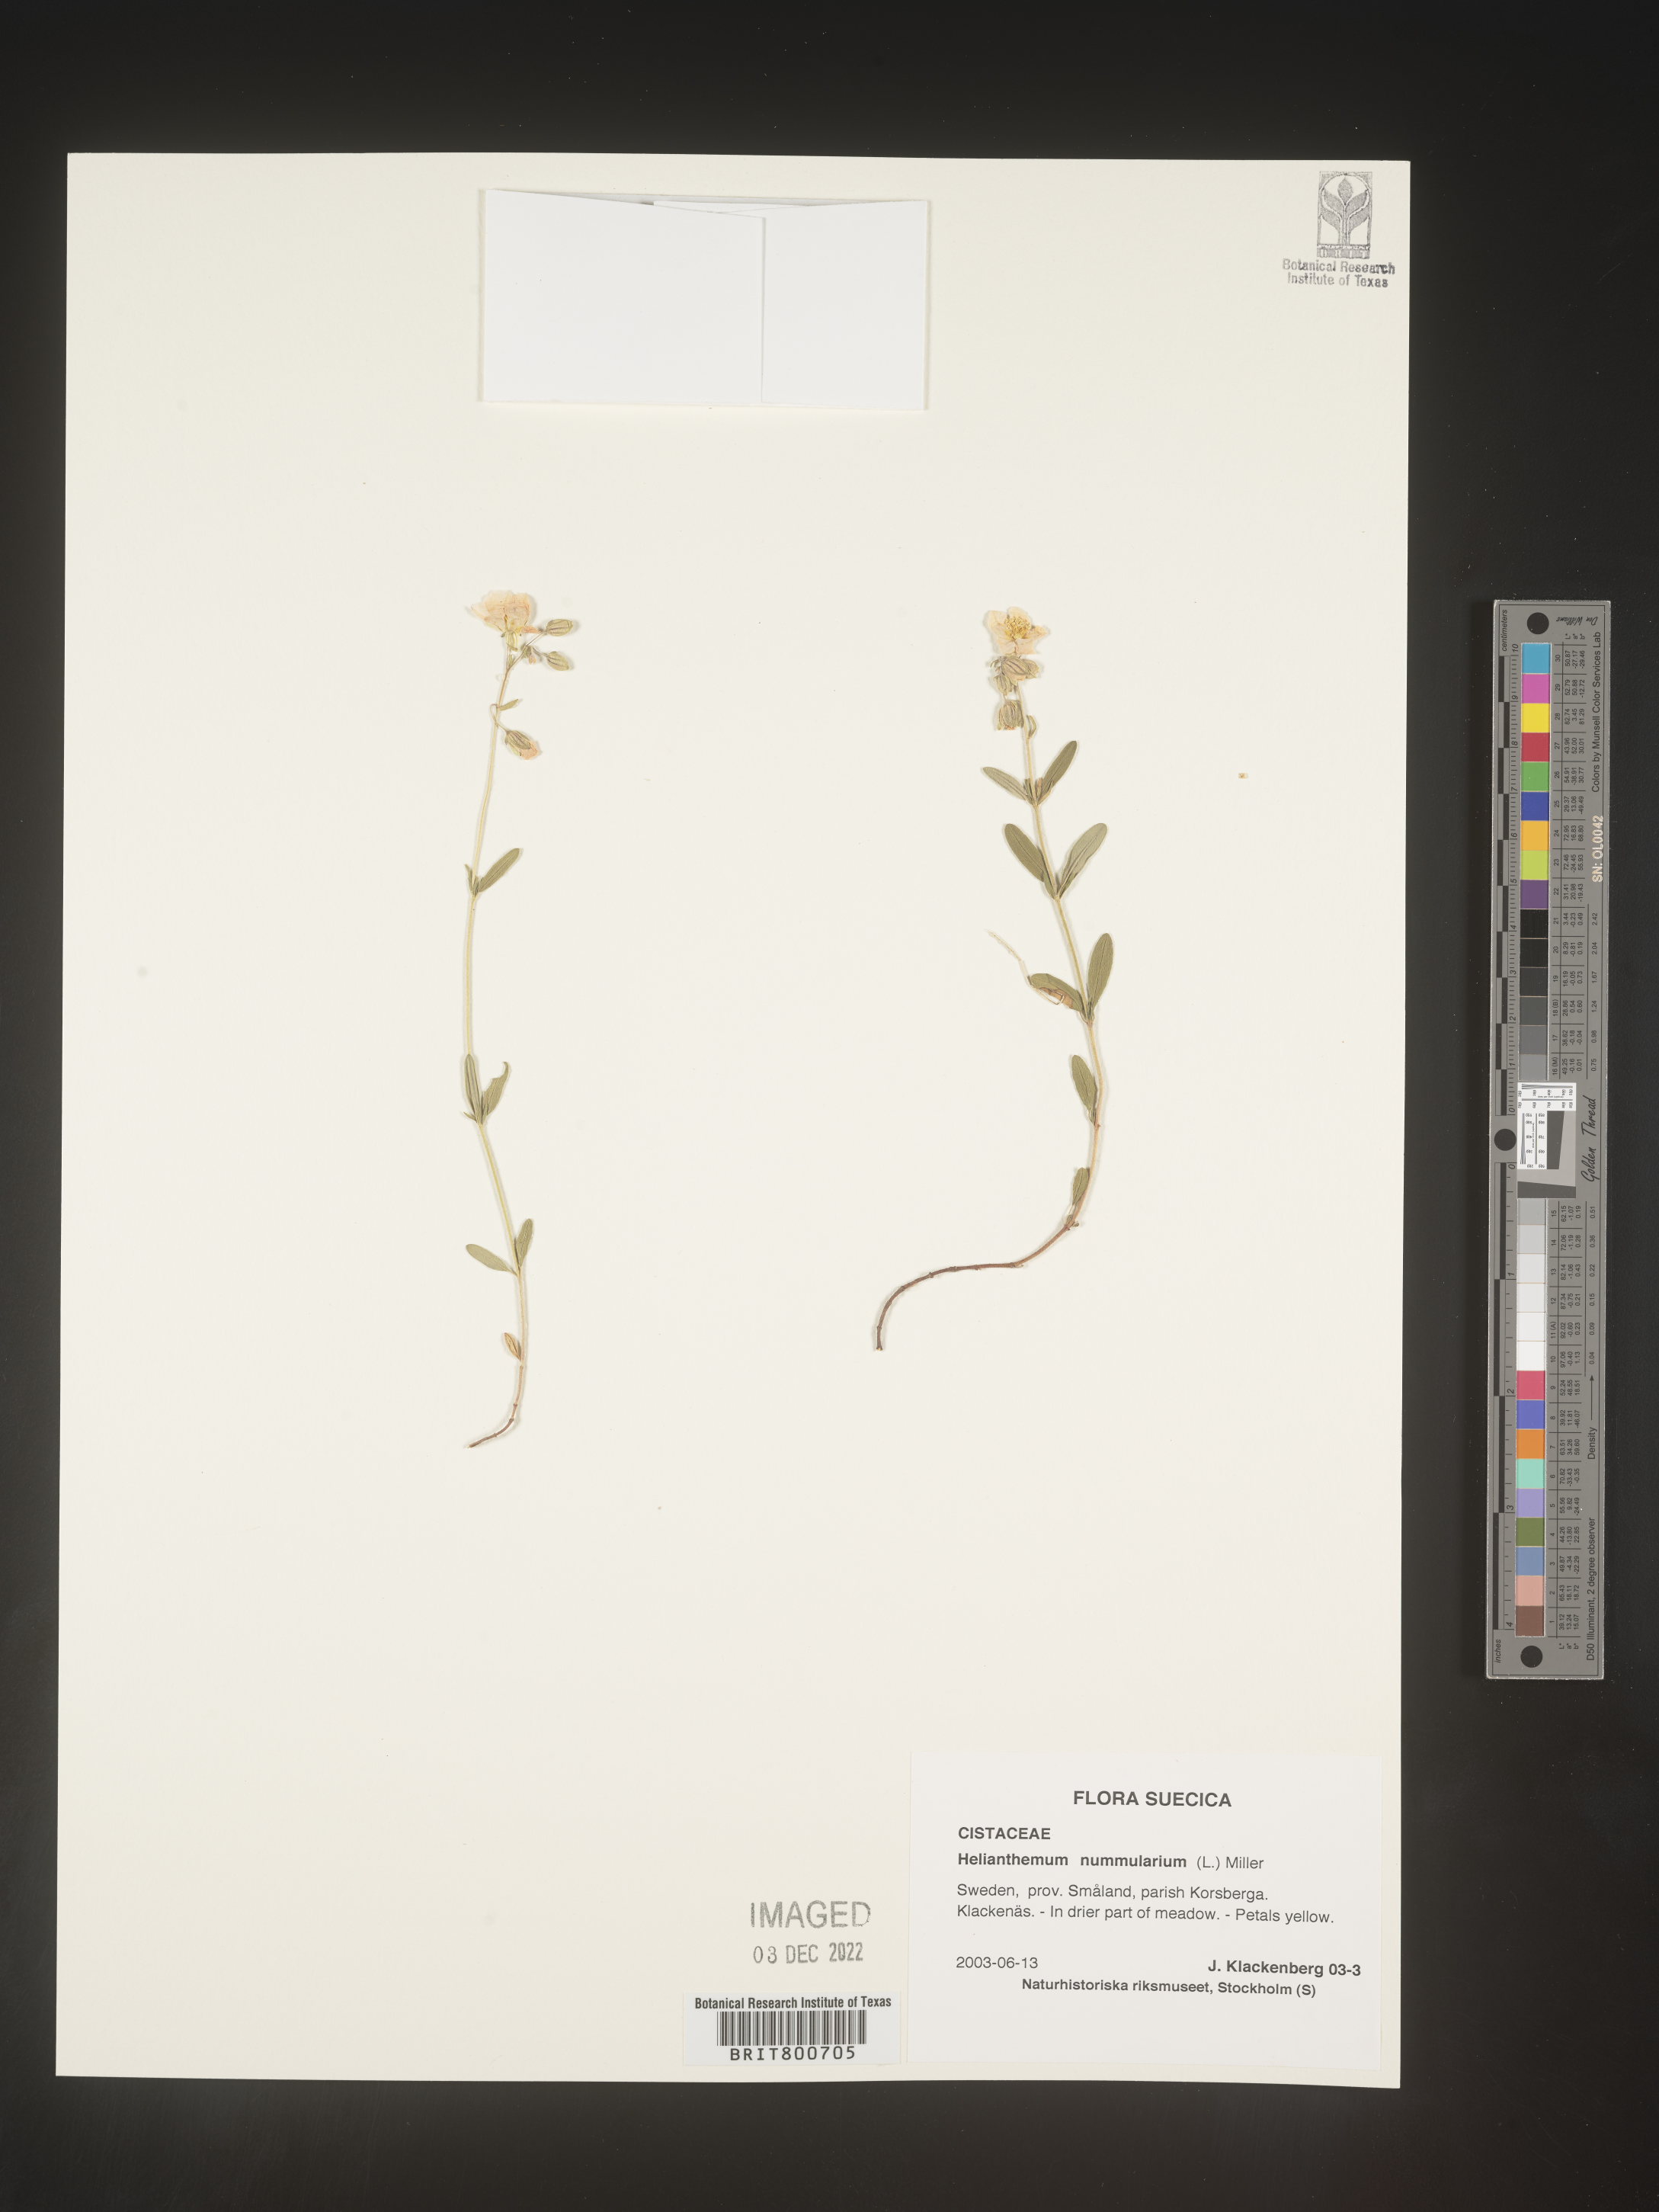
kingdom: Plantae
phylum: Tracheophyta
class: Magnoliopsida
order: Malvales
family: Cistaceae
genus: Helianthemum
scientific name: Helianthemum
